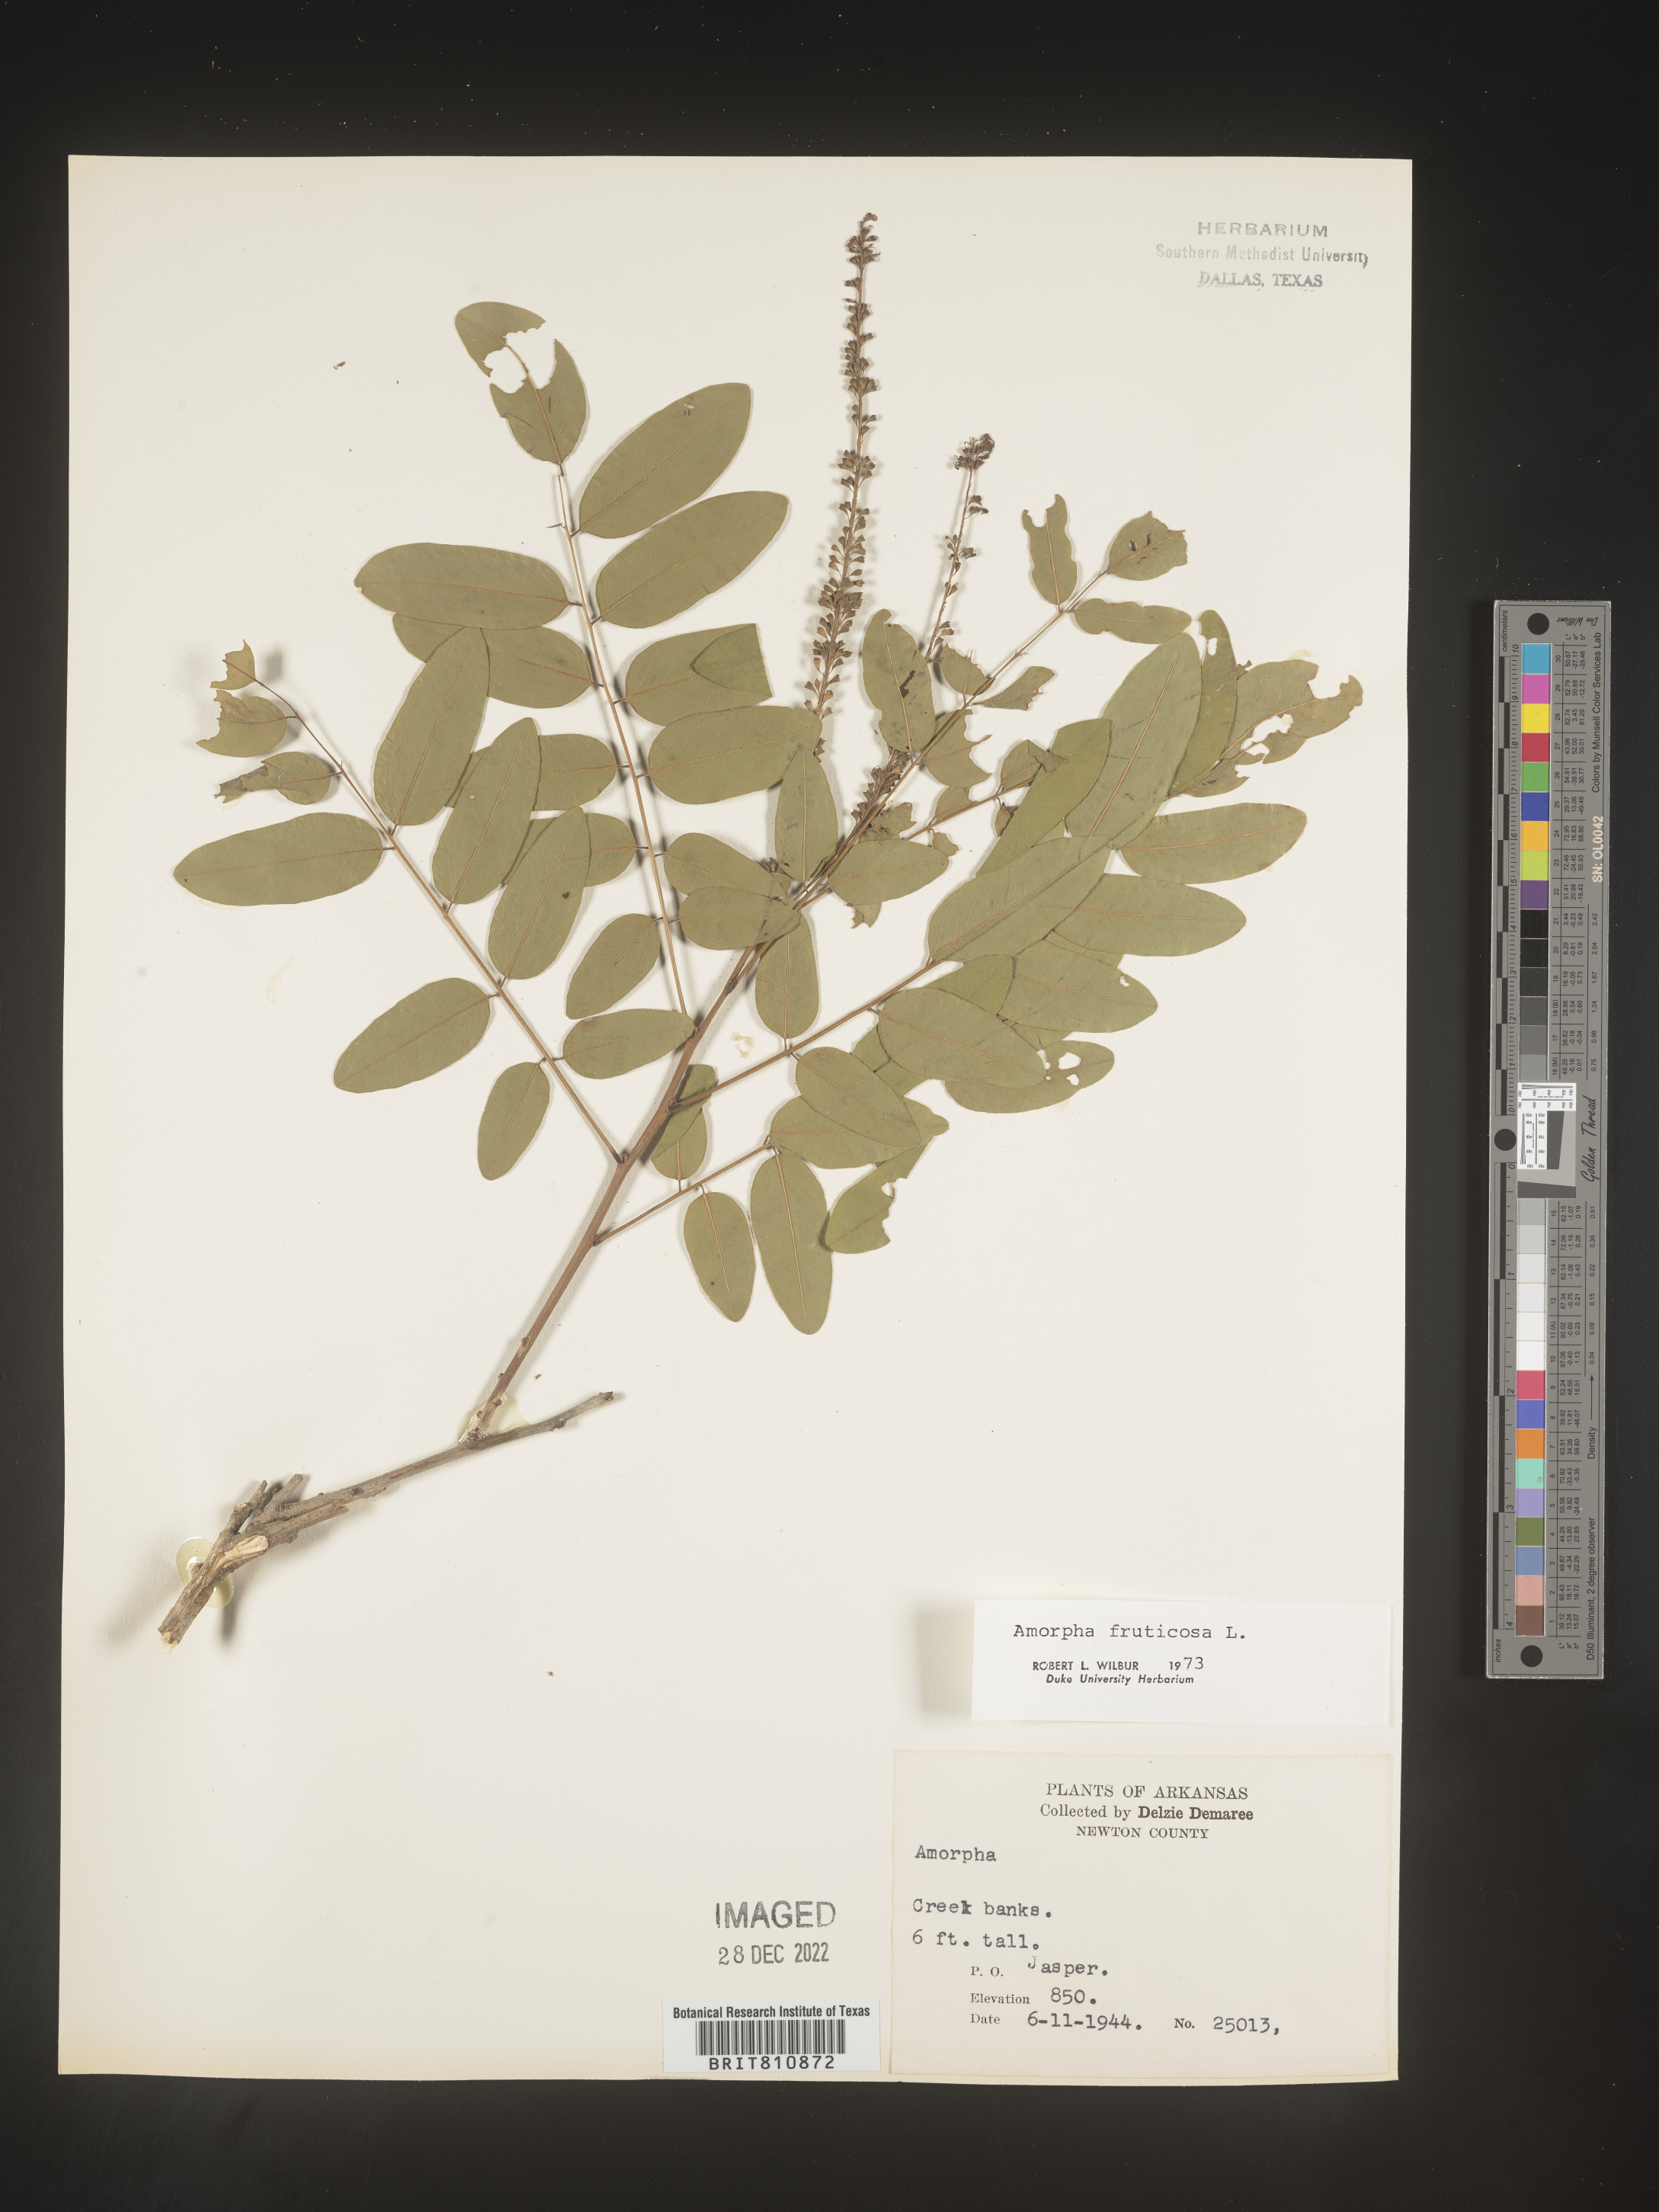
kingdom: Plantae
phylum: Tracheophyta
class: Magnoliopsida
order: Fabales
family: Fabaceae
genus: Amorpha
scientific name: Amorpha fruticosa
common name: False indigo
